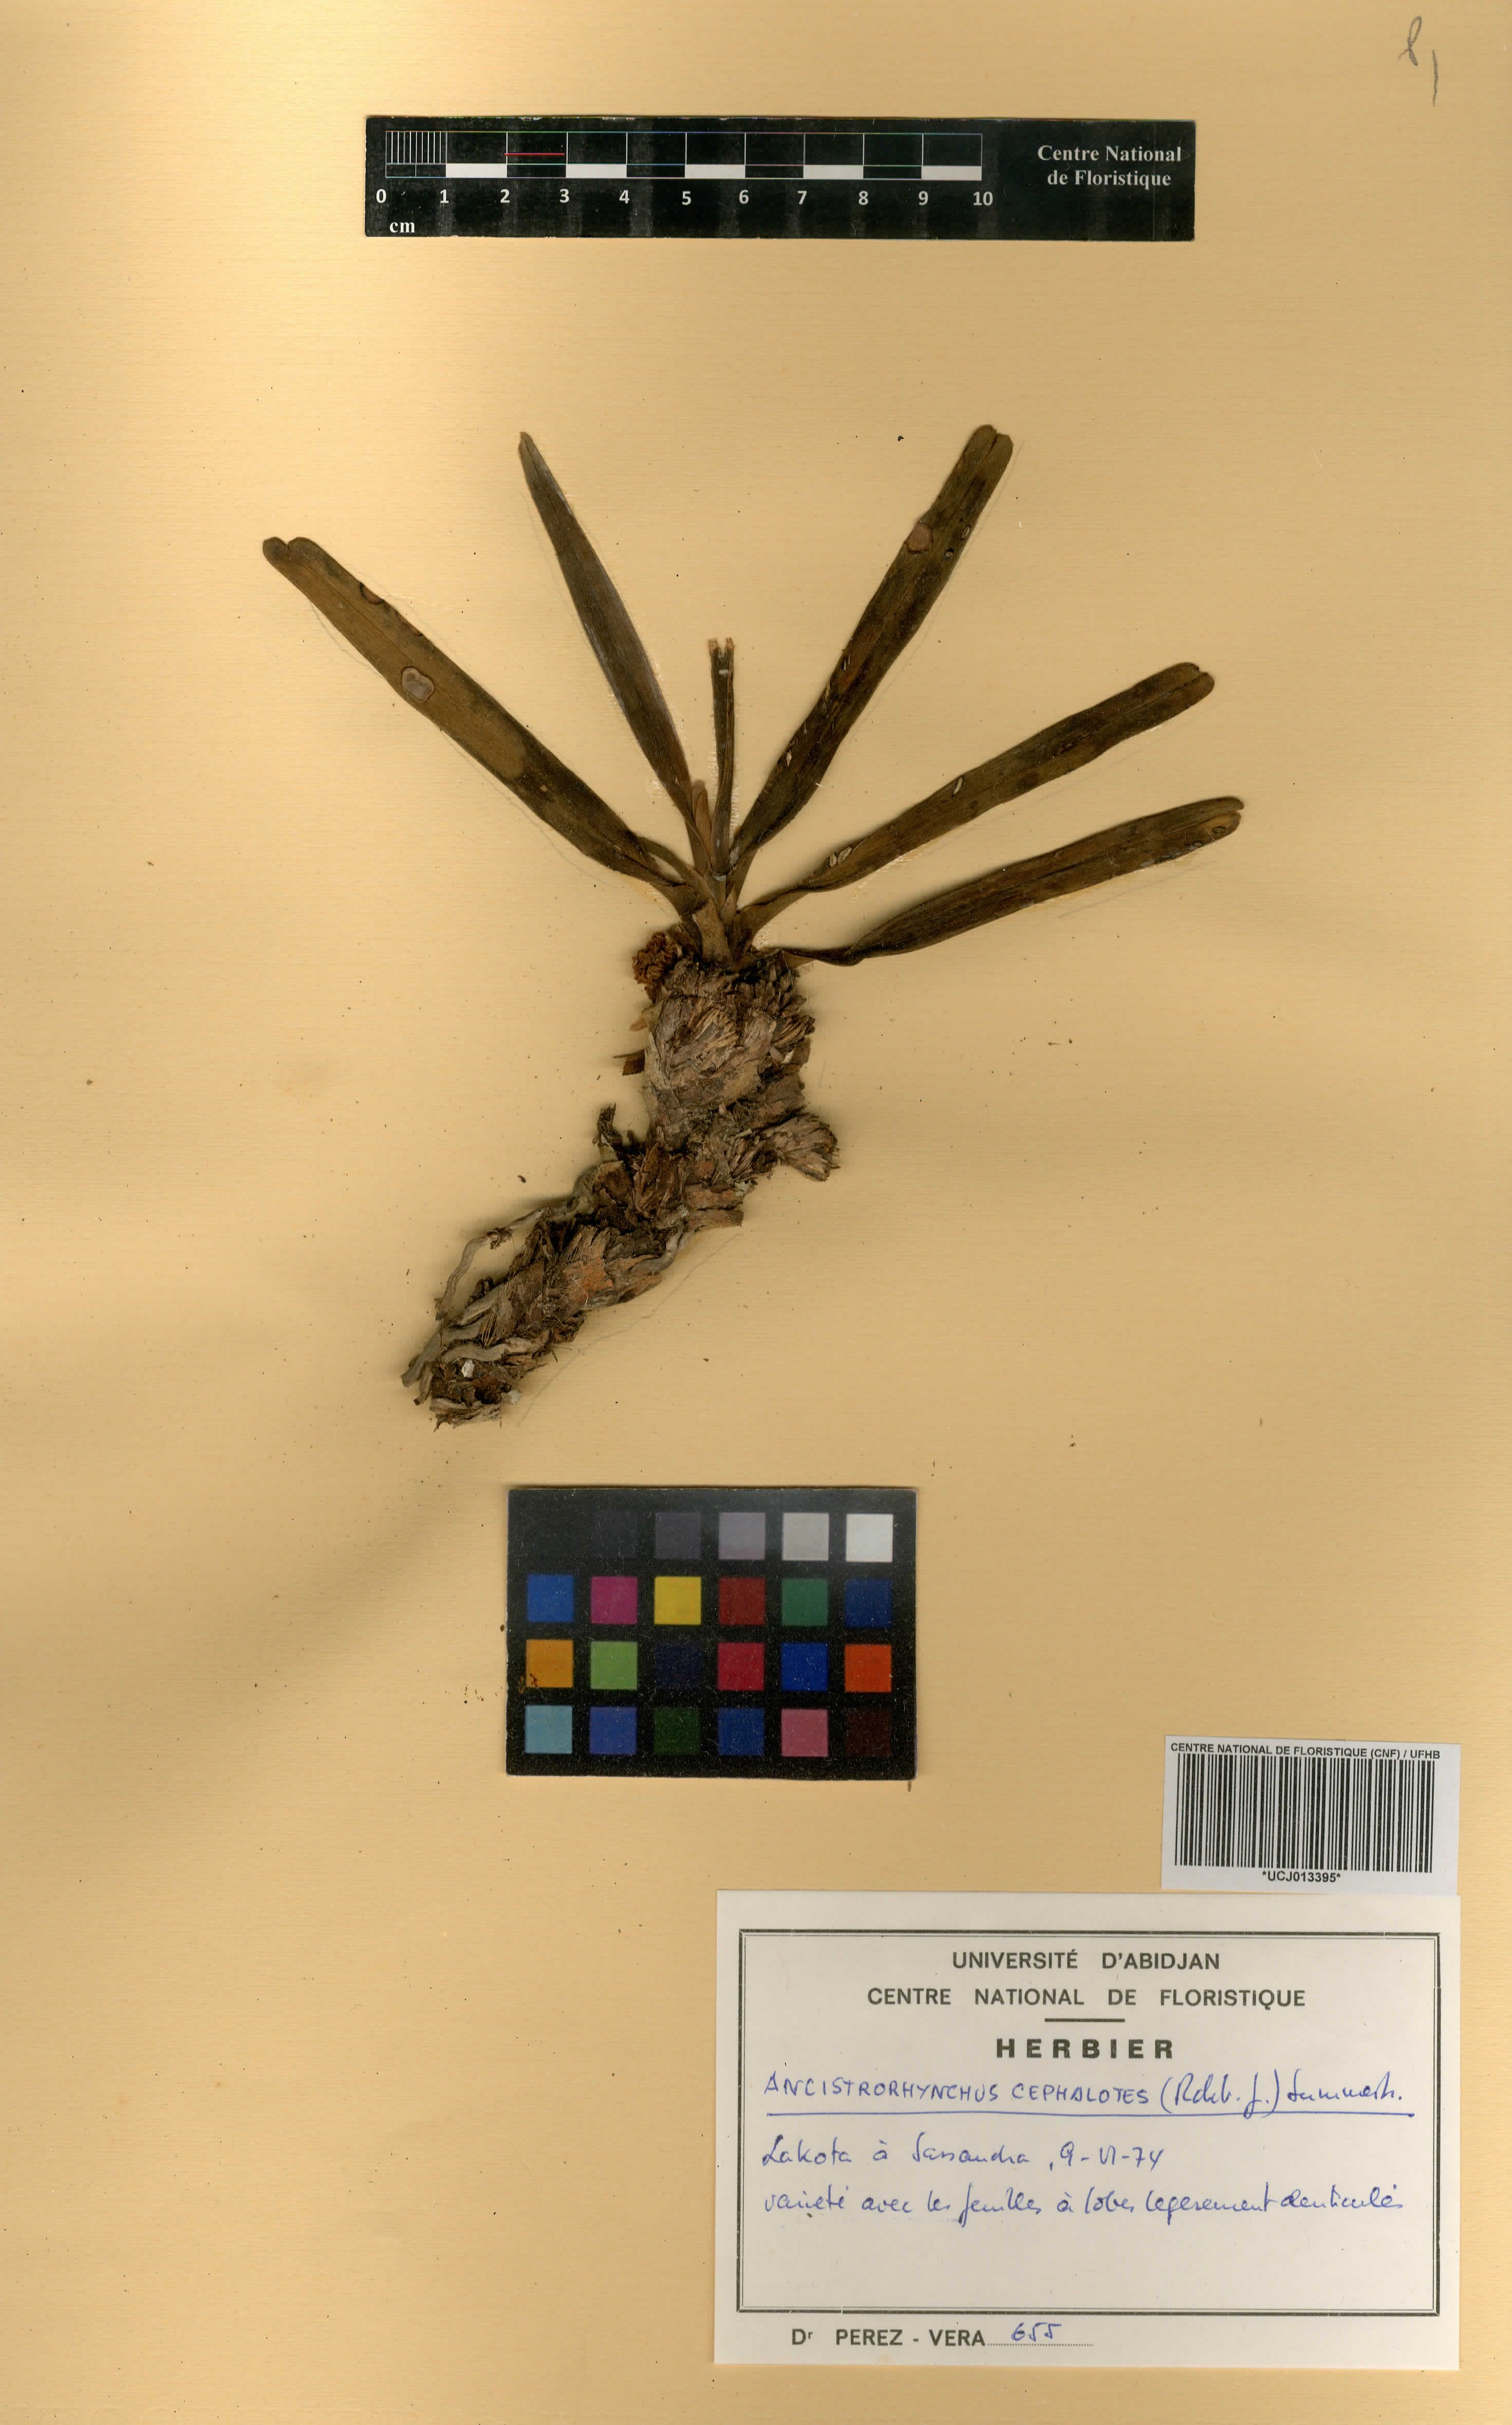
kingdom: Plantae
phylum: Tracheophyta
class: Liliopsida
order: Asparagales
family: Orchidaceae
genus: Ancistrorhynchus
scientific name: Ancistrorhynchus cephalotes
